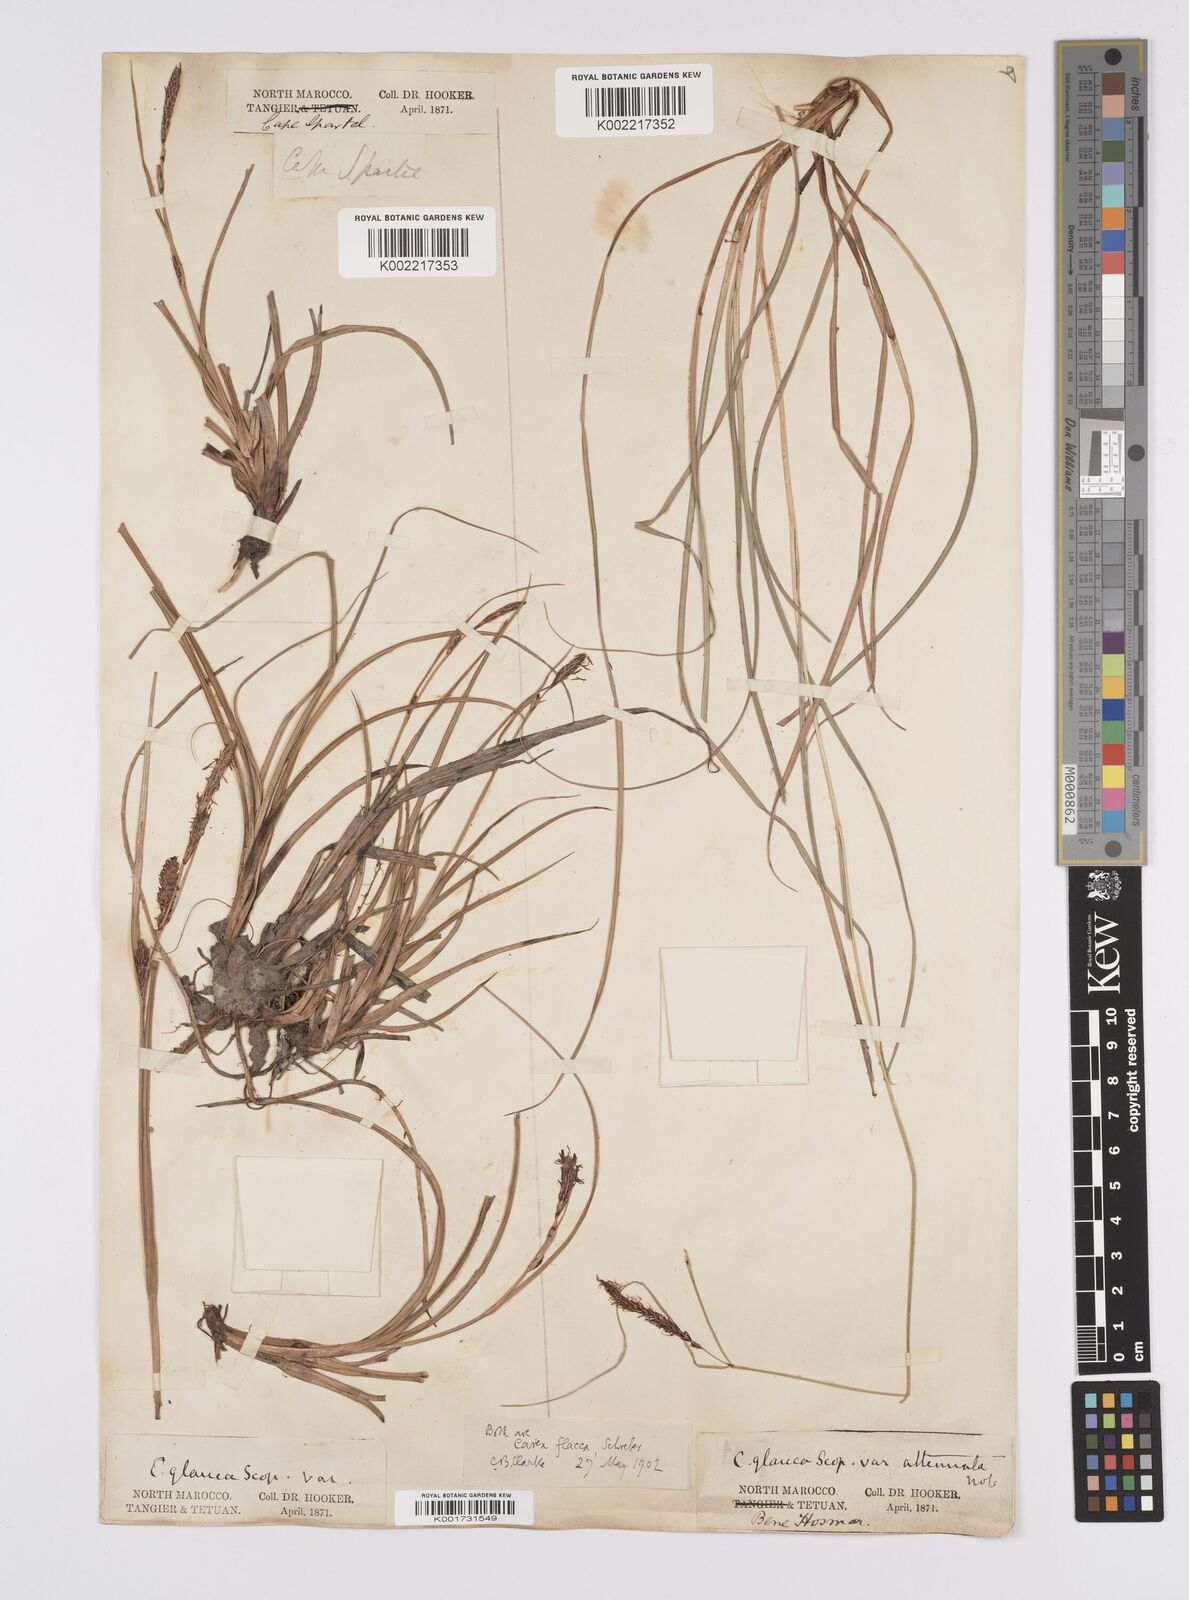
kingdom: Plantae
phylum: Tracheophyta
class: Liliopsida
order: Poales
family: Cyperaceae
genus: Carex
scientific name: Carex flacca
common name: Glaucous sedge
